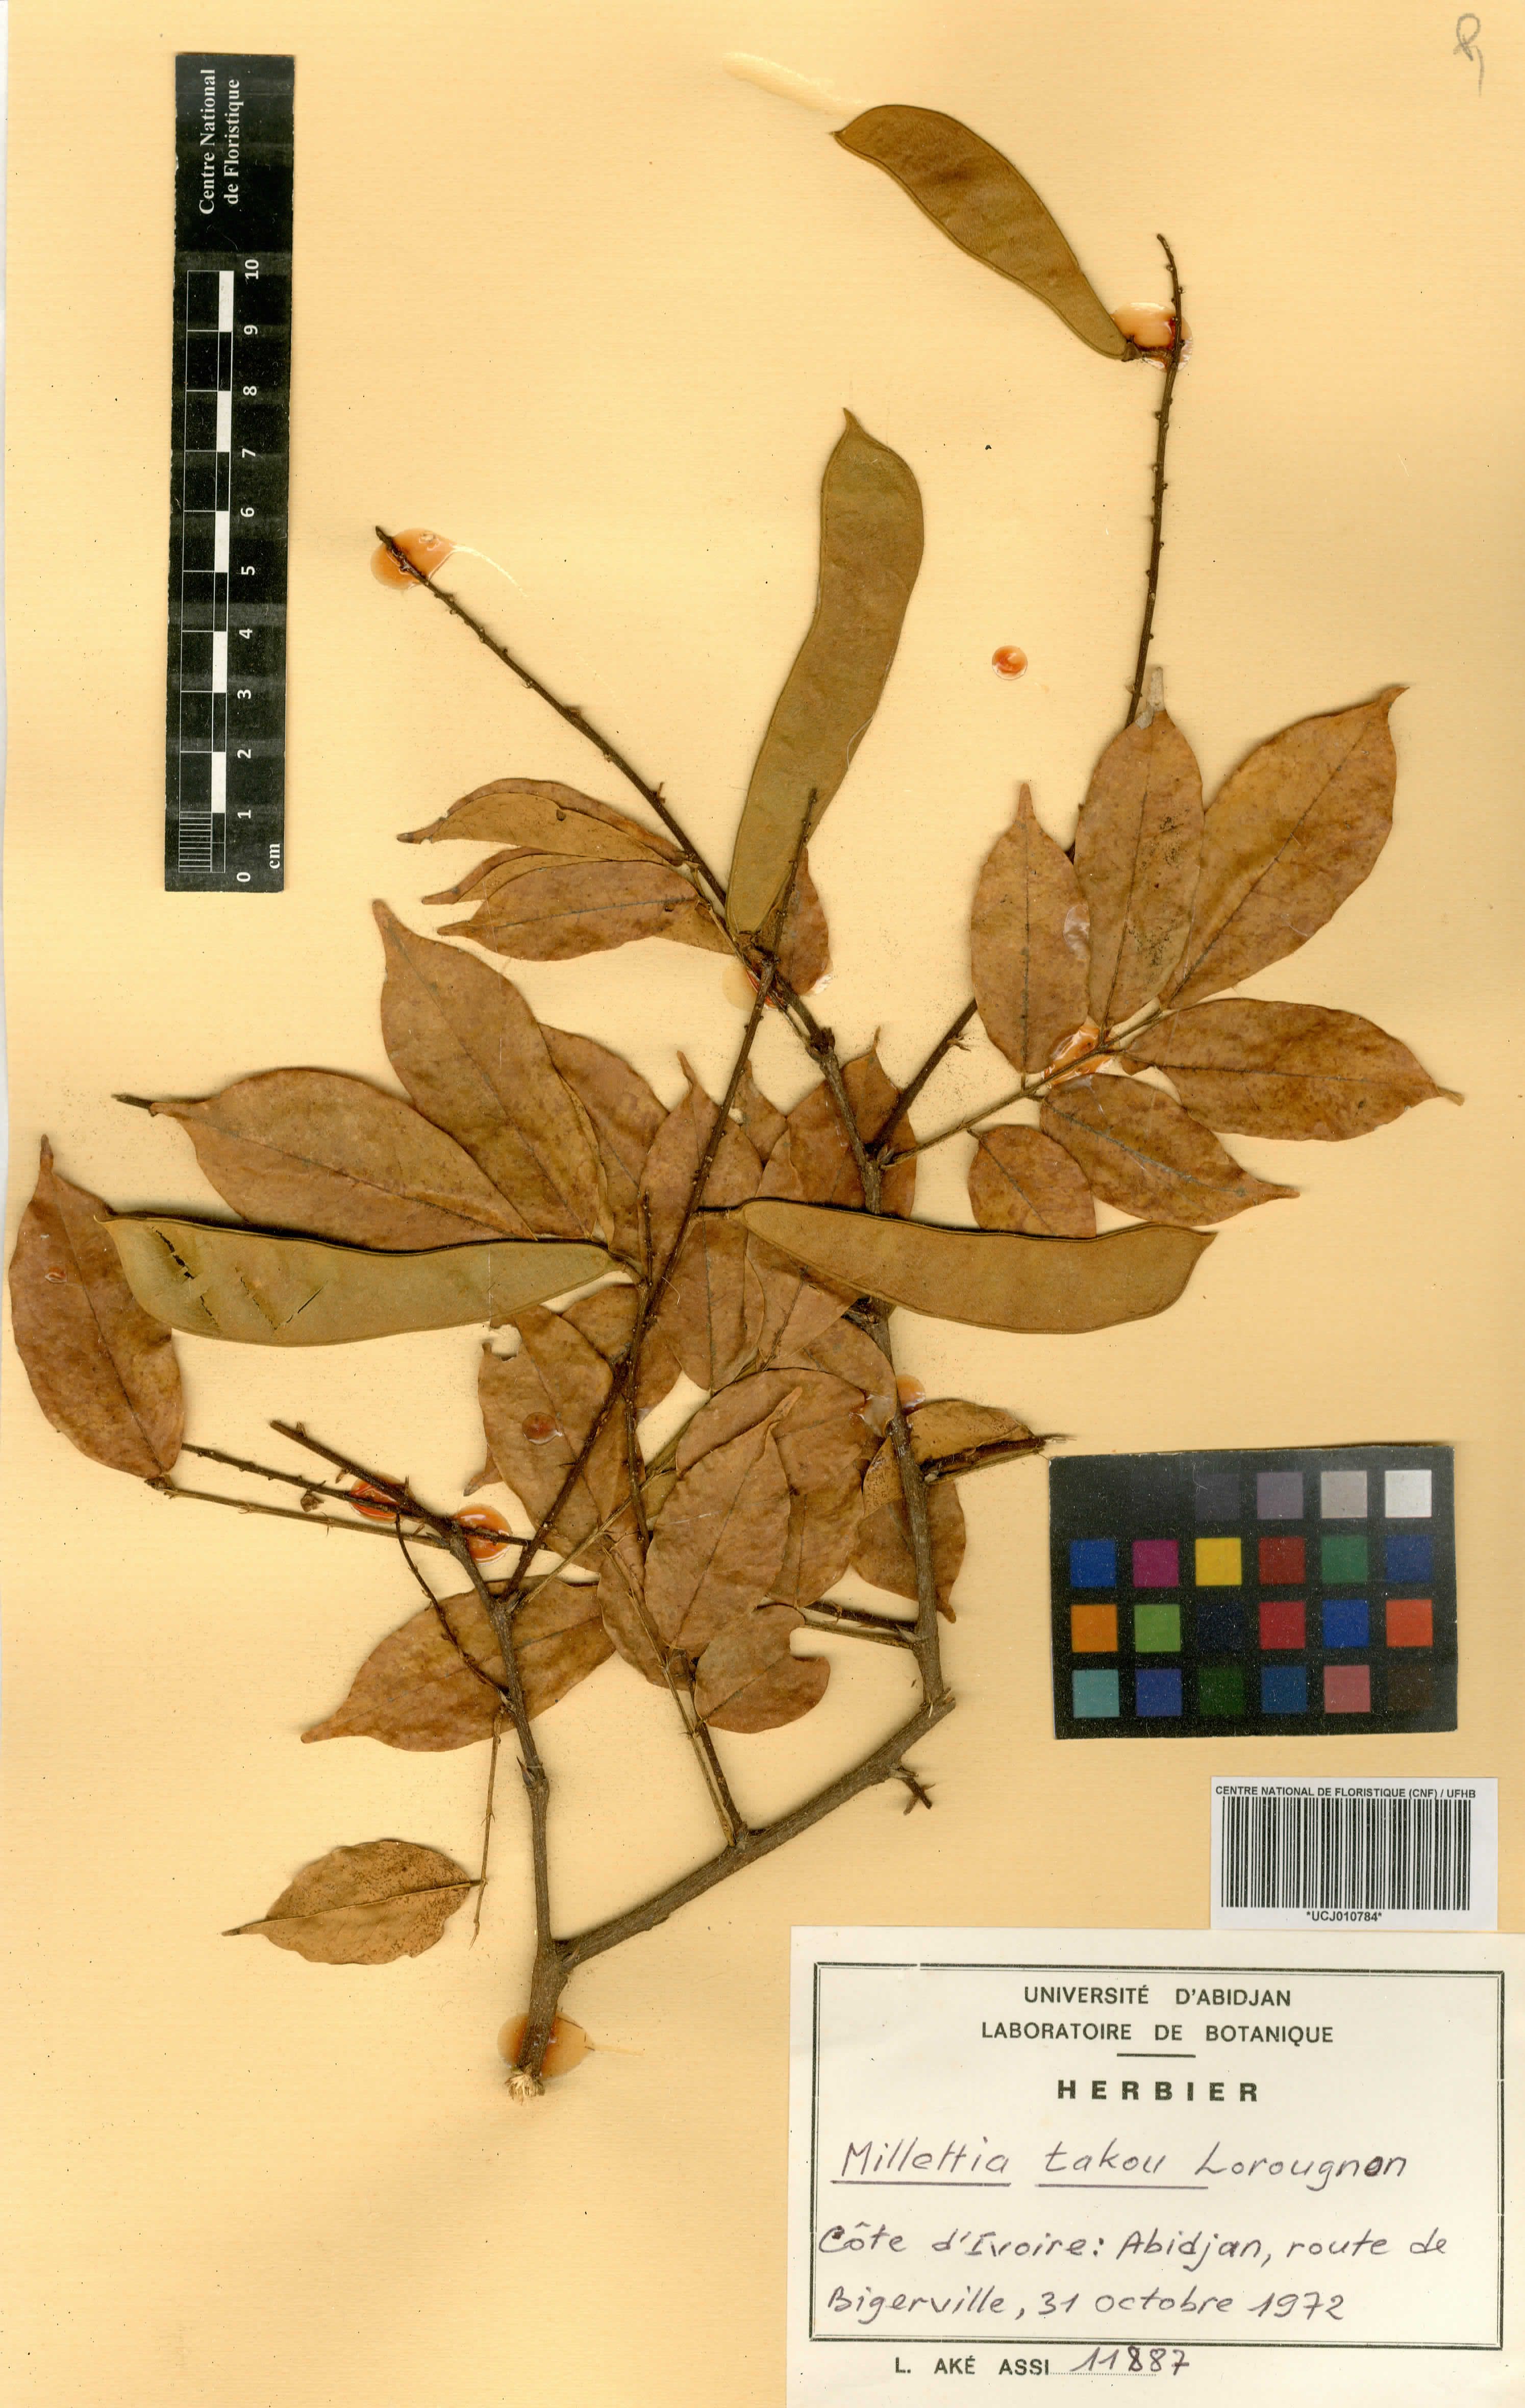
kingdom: Plantae
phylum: Tracheophyta
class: Magnoliopsida
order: Fabales
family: Fabaceae
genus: Millettia
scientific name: Millettia takou
